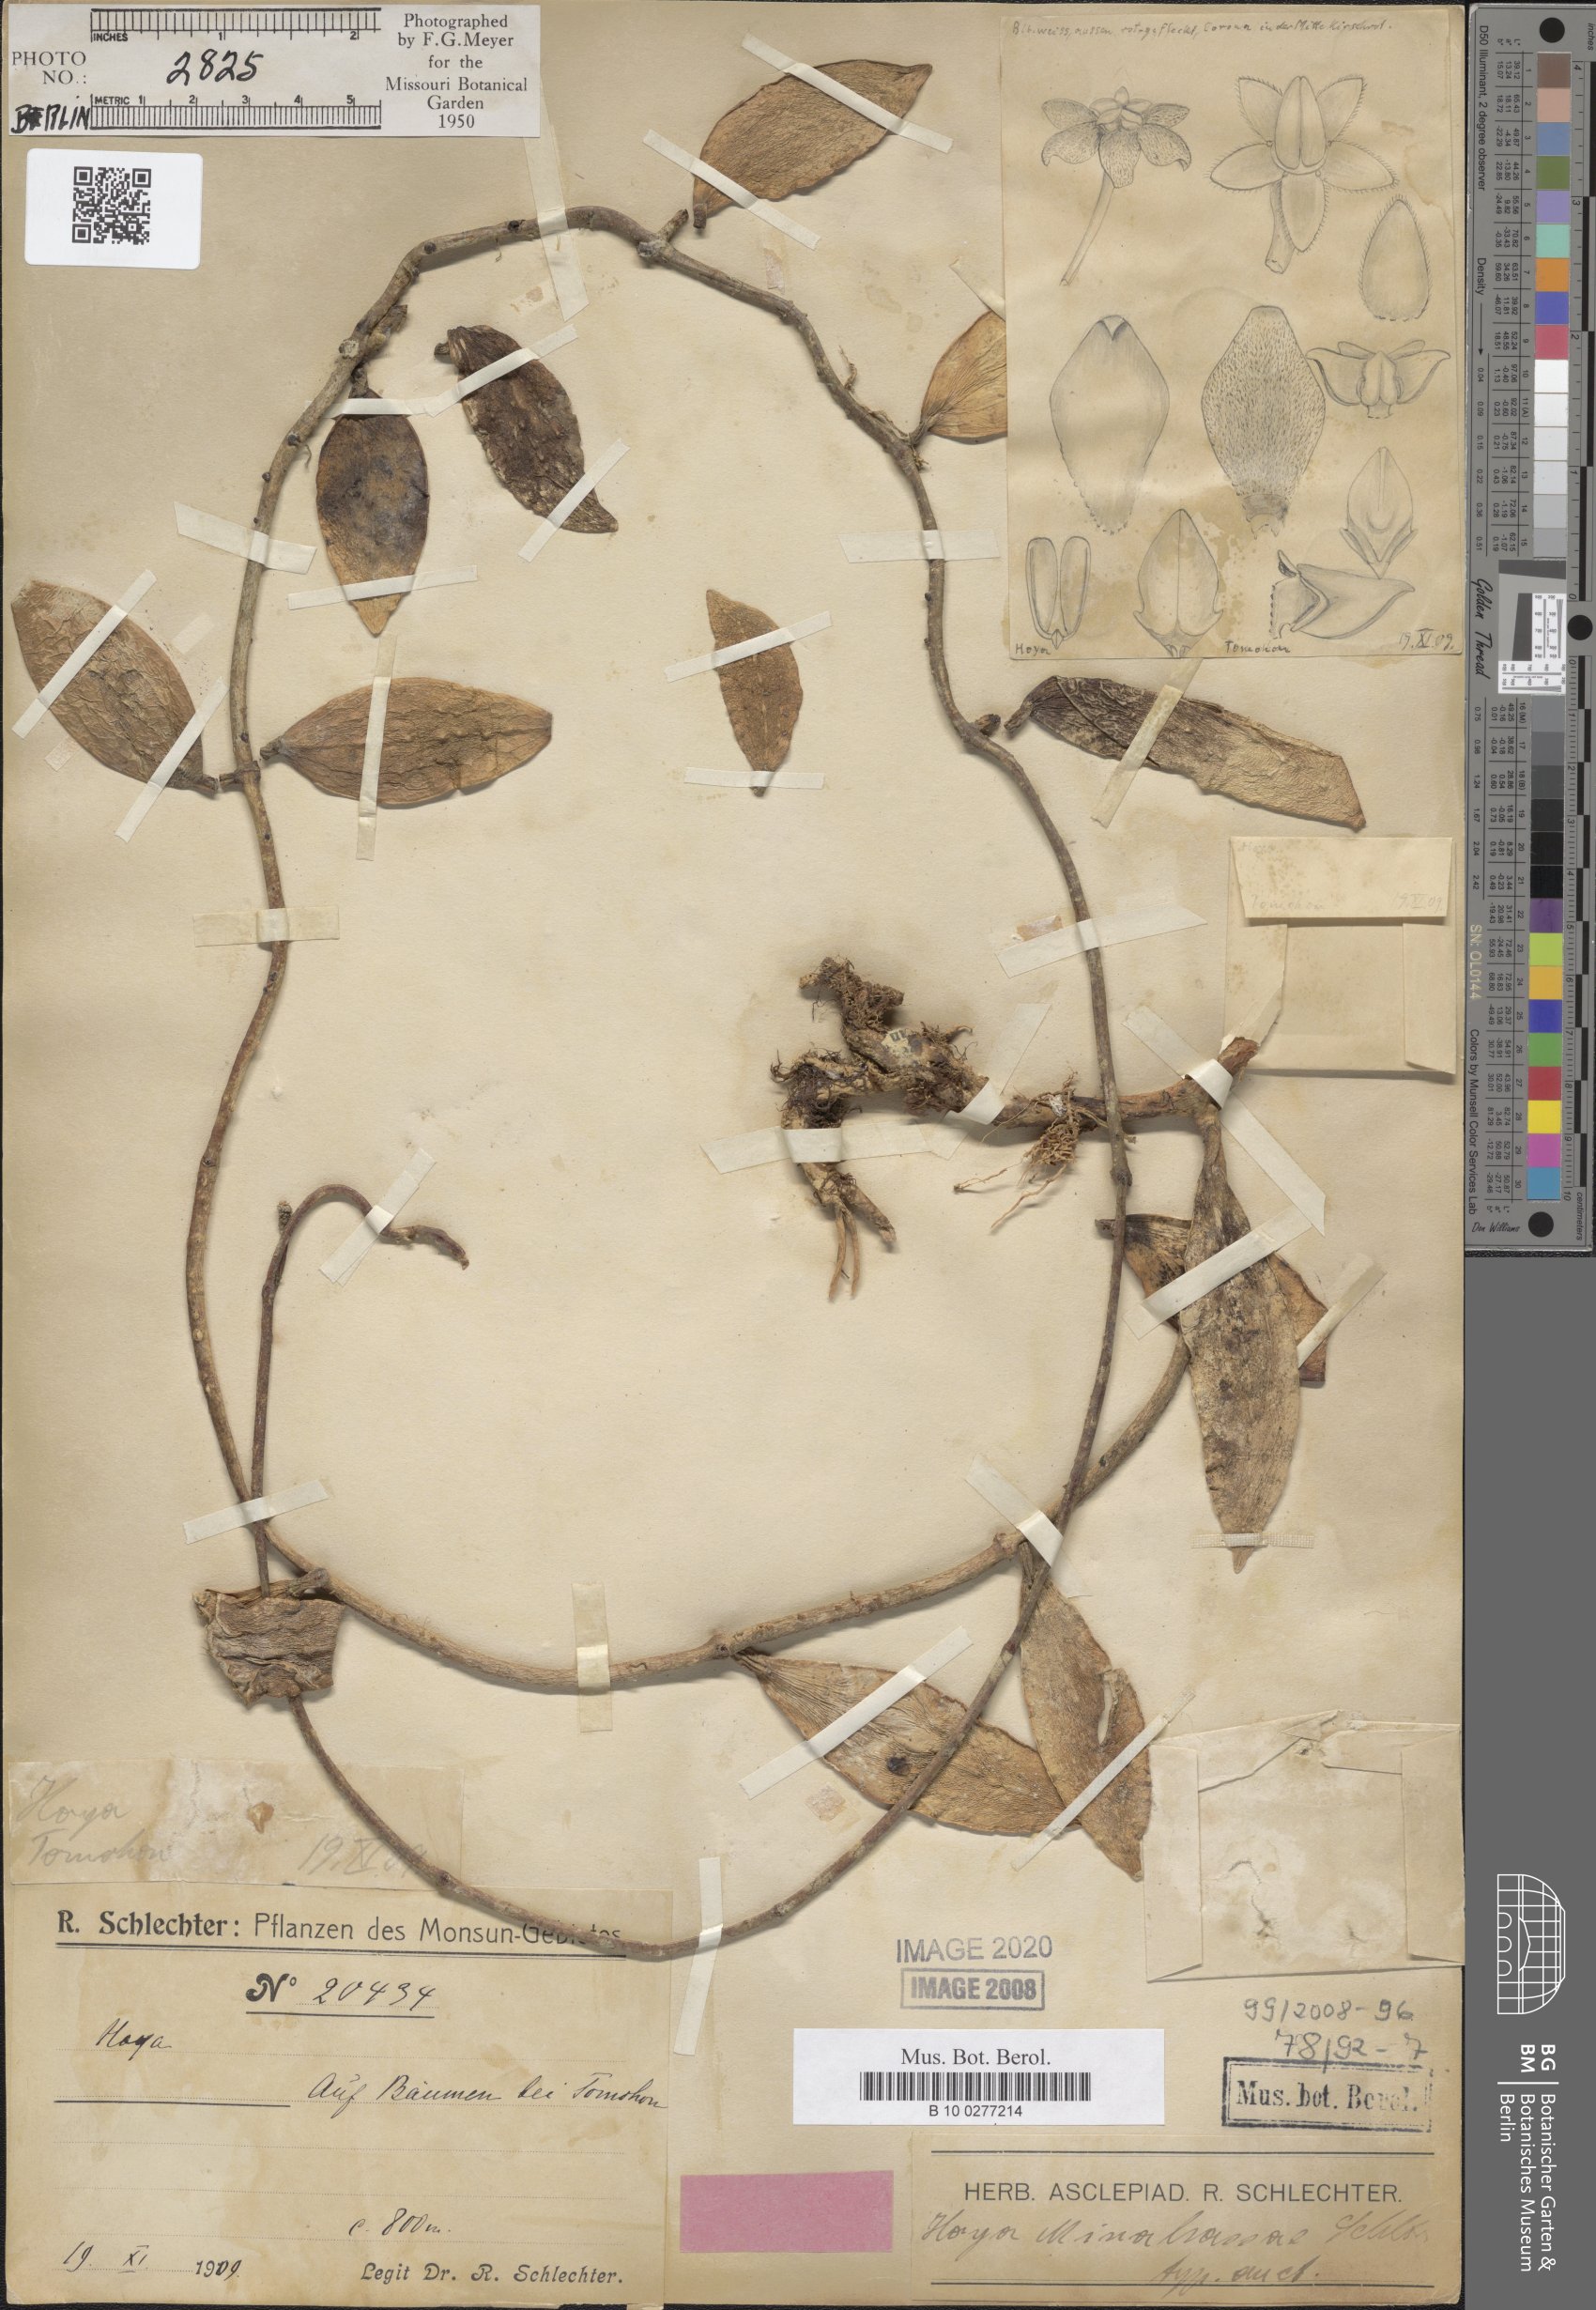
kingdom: Plantae
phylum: Tracheophyta
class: Magnoliopsida
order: Gentianales
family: Apocynaceae
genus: Hoya
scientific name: Hoya minahassae
